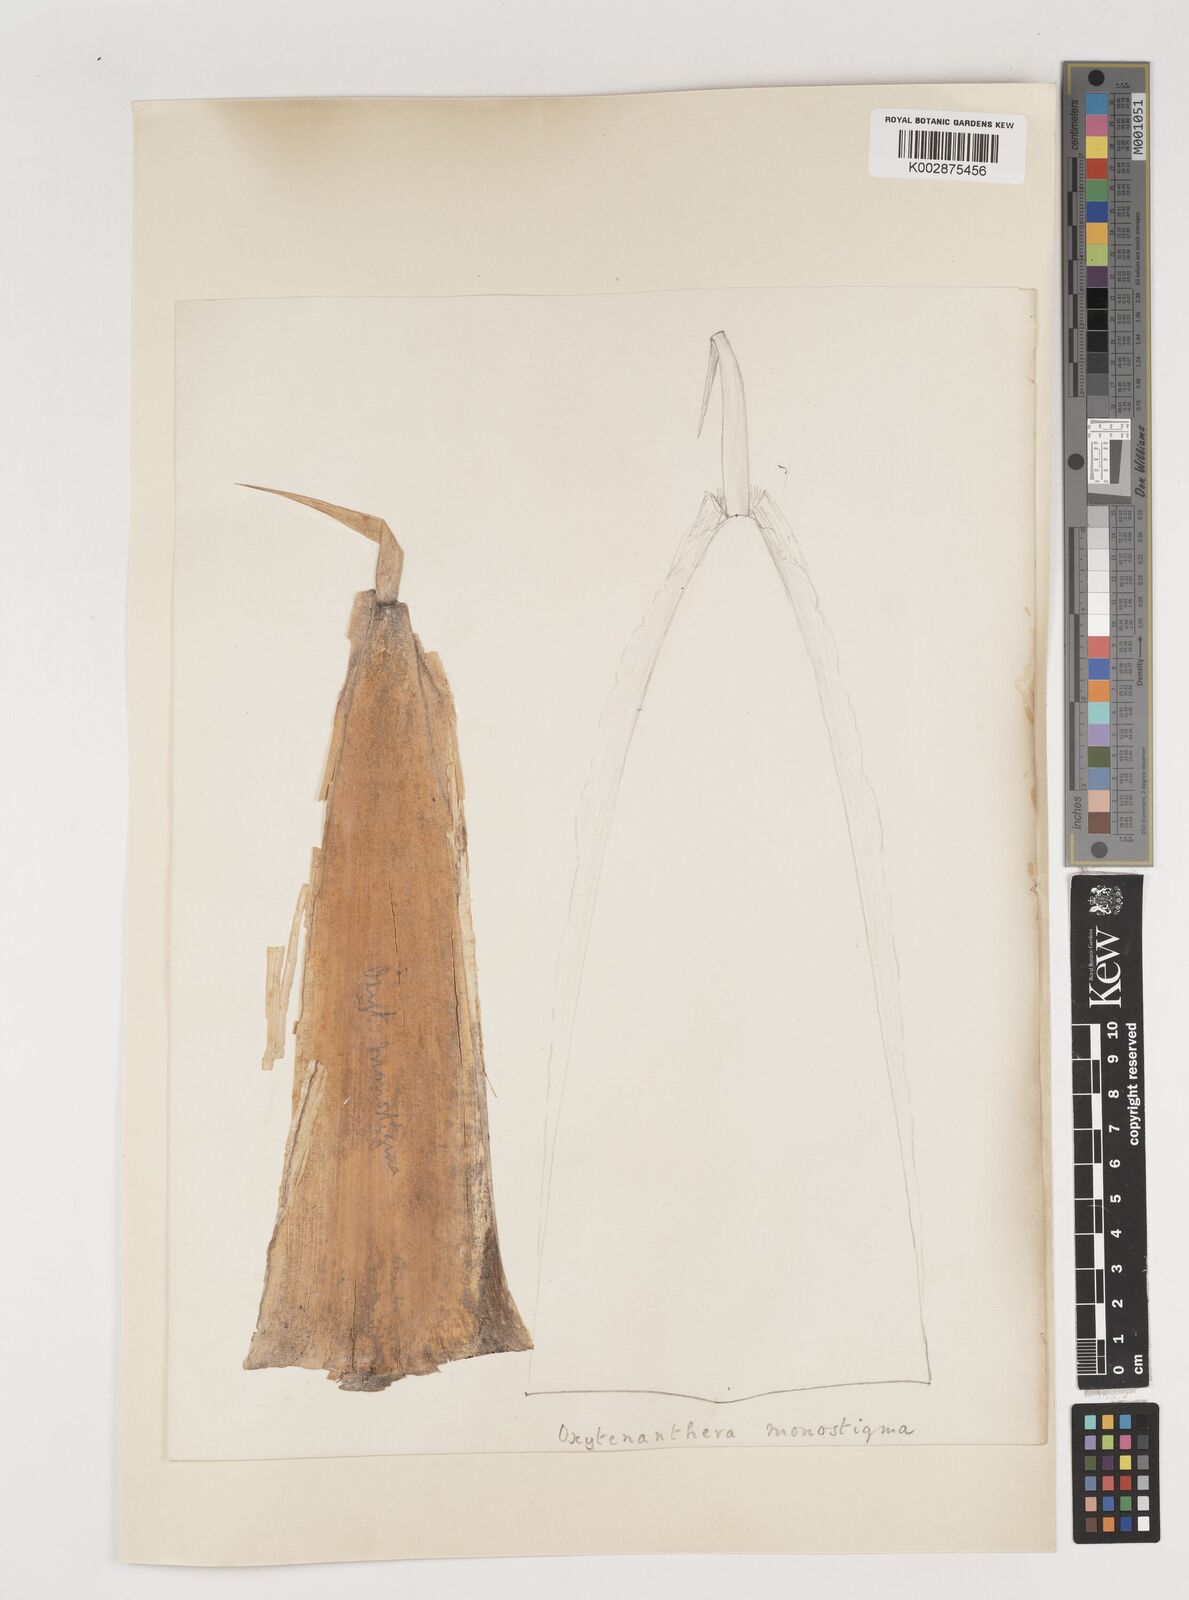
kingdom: Plantae
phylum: Tracheophyta
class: Liliopsida
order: Poales
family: Poaceae
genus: Dendrocalamus
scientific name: Dendrocalamus
